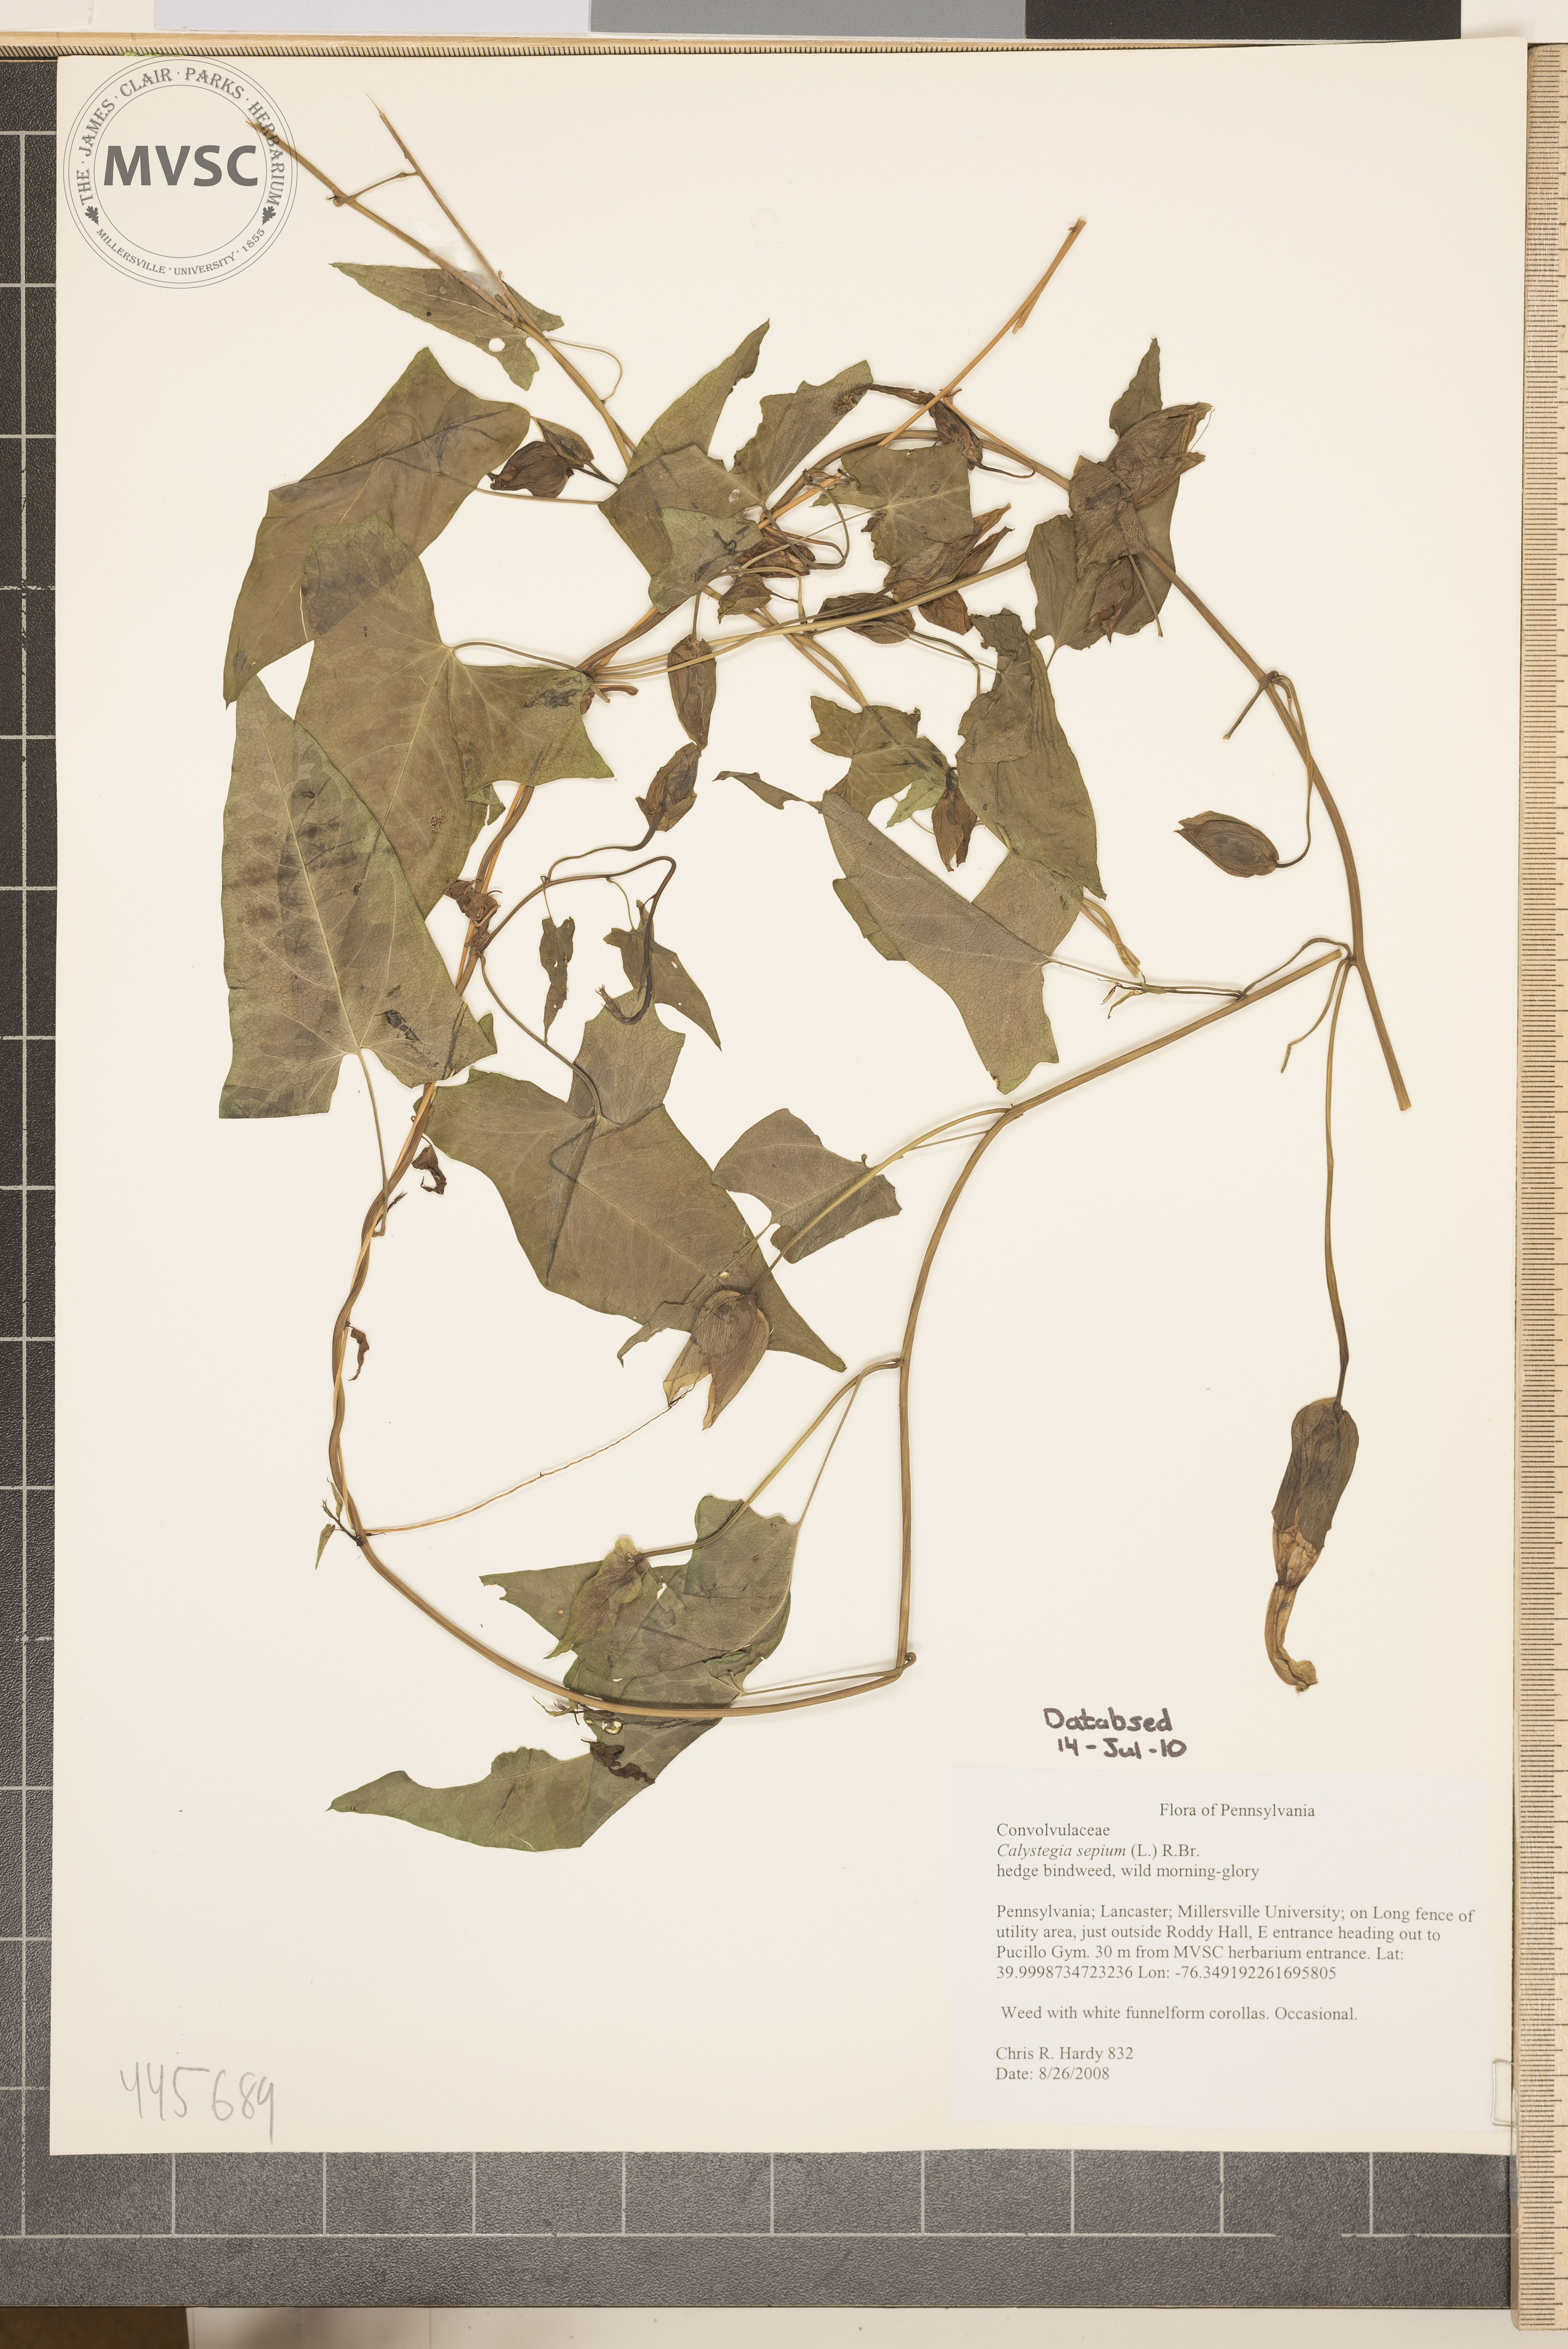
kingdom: Plantae
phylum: Tracheophyta
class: Magnoliopsida
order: Solanales
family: Convolvulaceae
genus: Calystegia
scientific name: Calystegia sepium
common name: hedge bindweed
